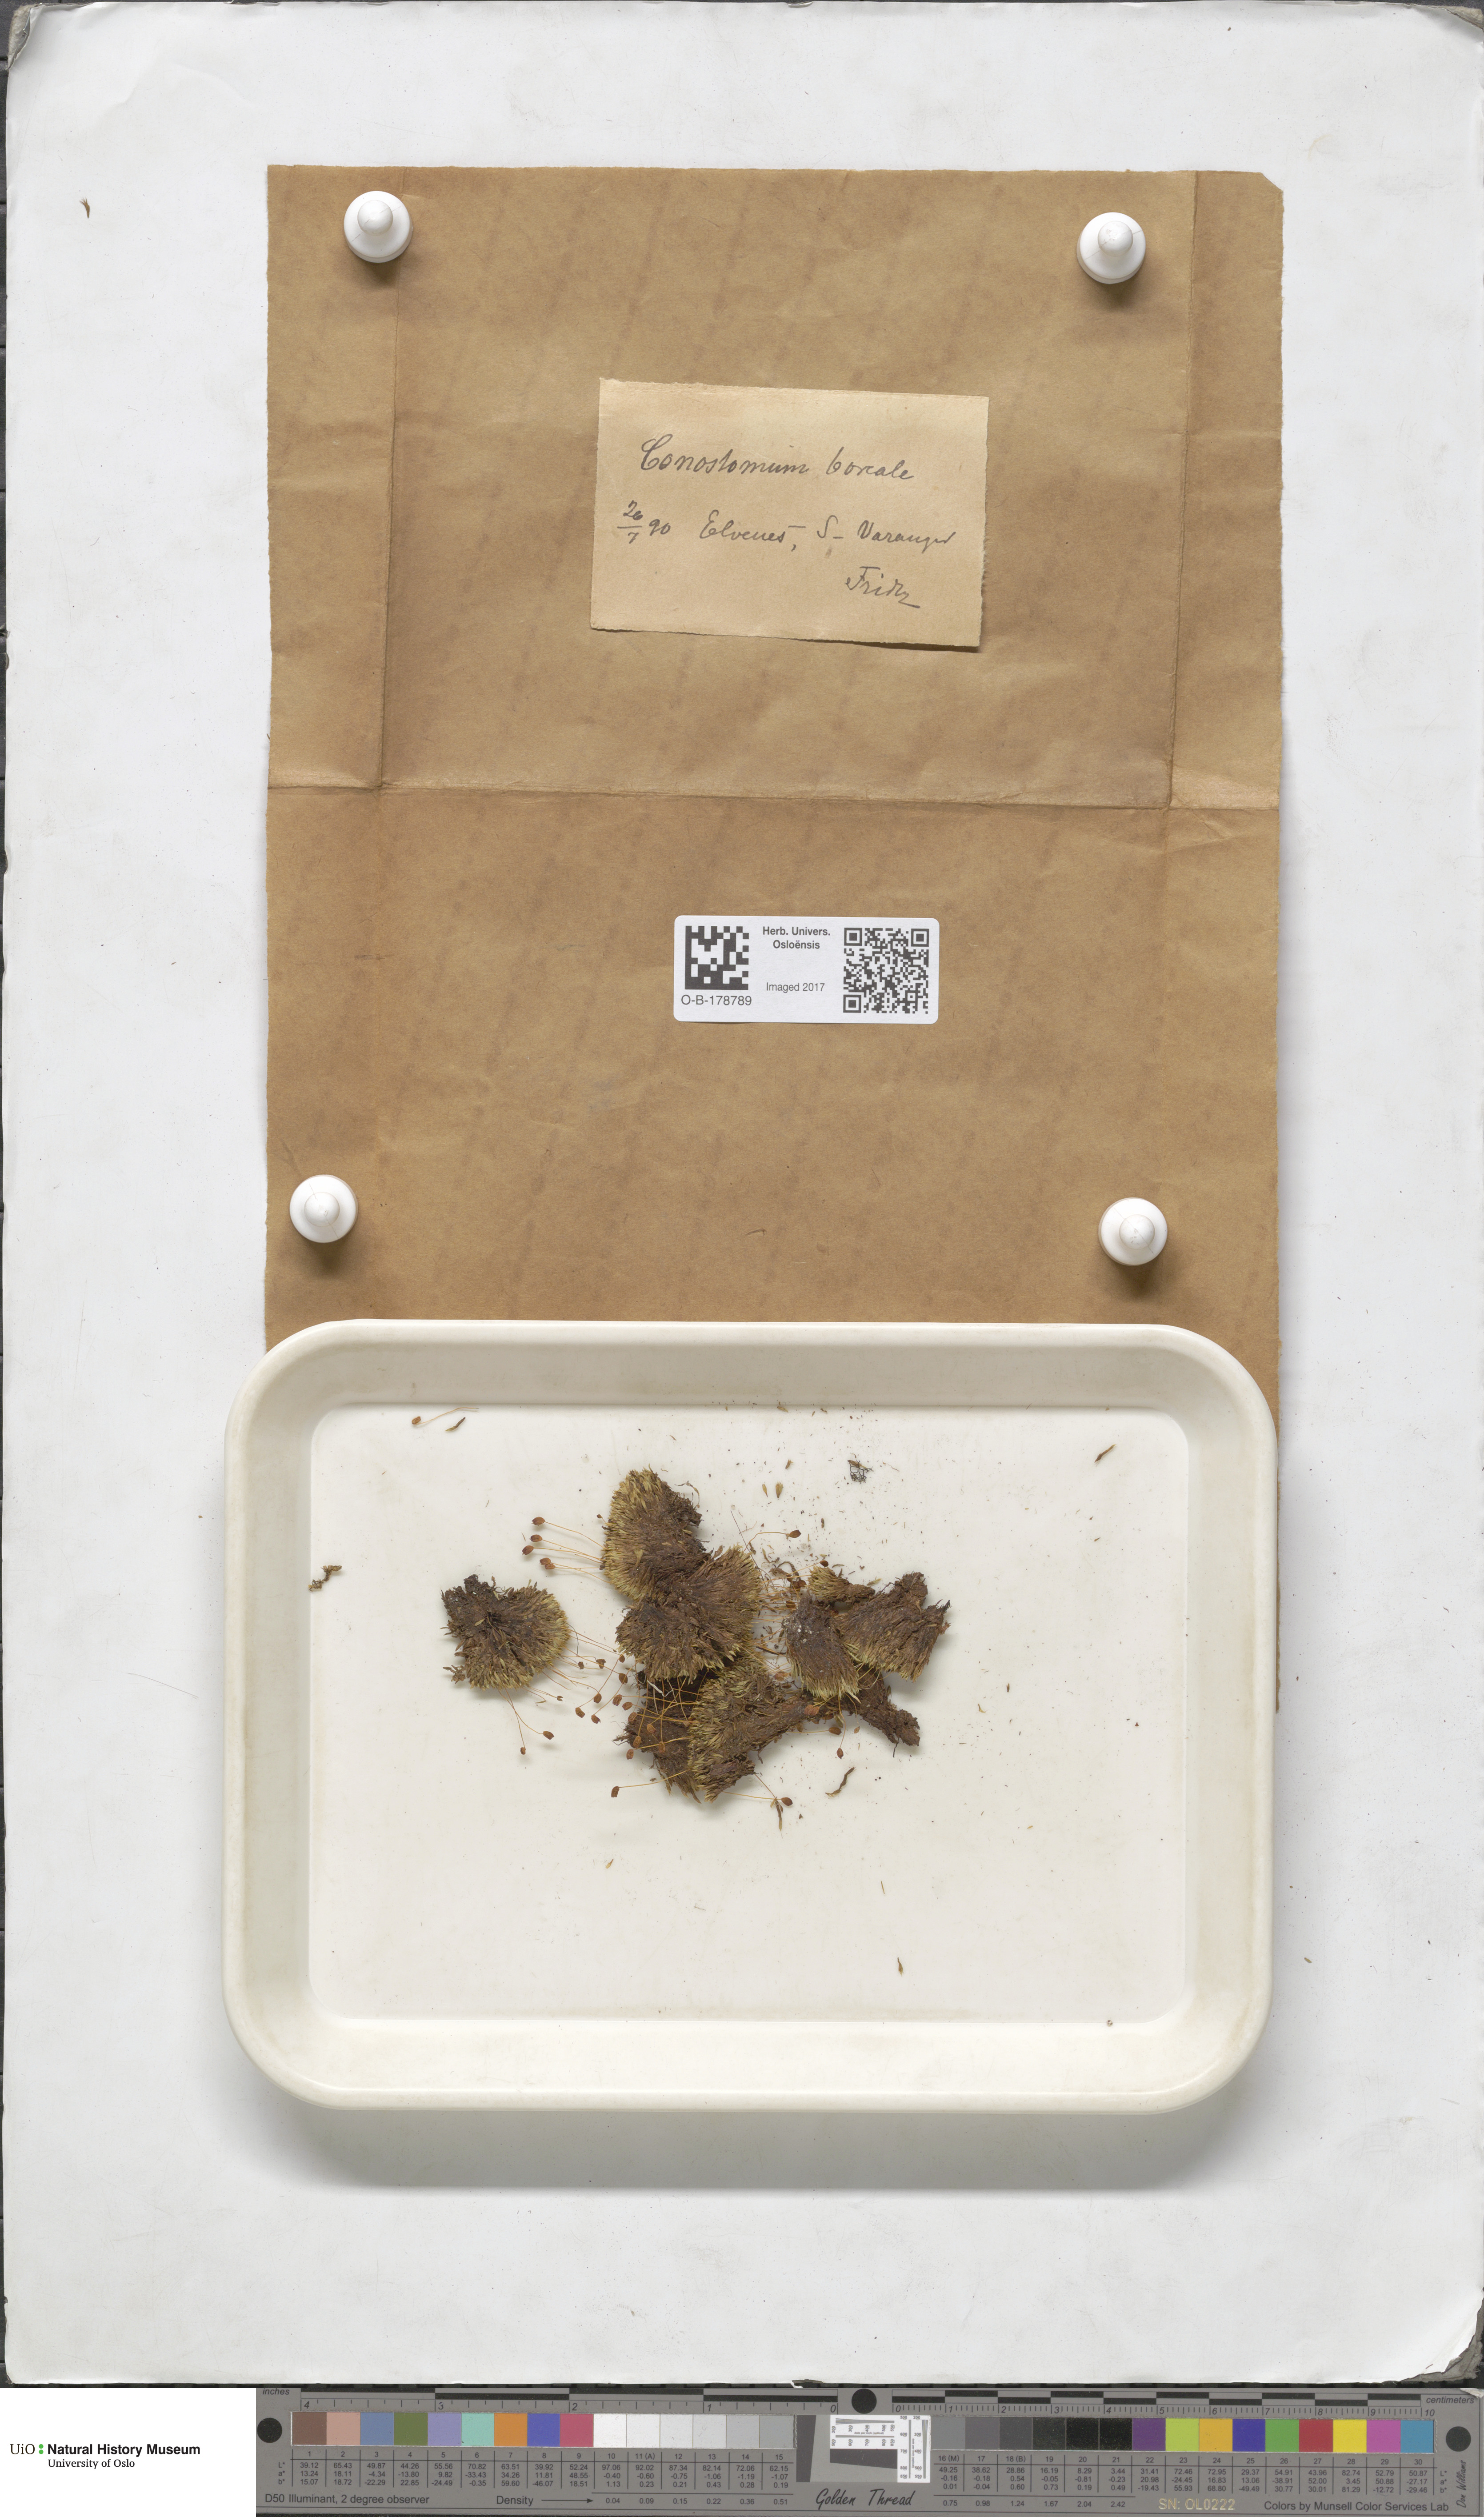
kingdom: Plantae
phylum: Bryophyta
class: Bryopsida
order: Bartramiales
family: Bartramiaceae
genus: Conostomum
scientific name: Conostomum tetragonum
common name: Helmet moss
